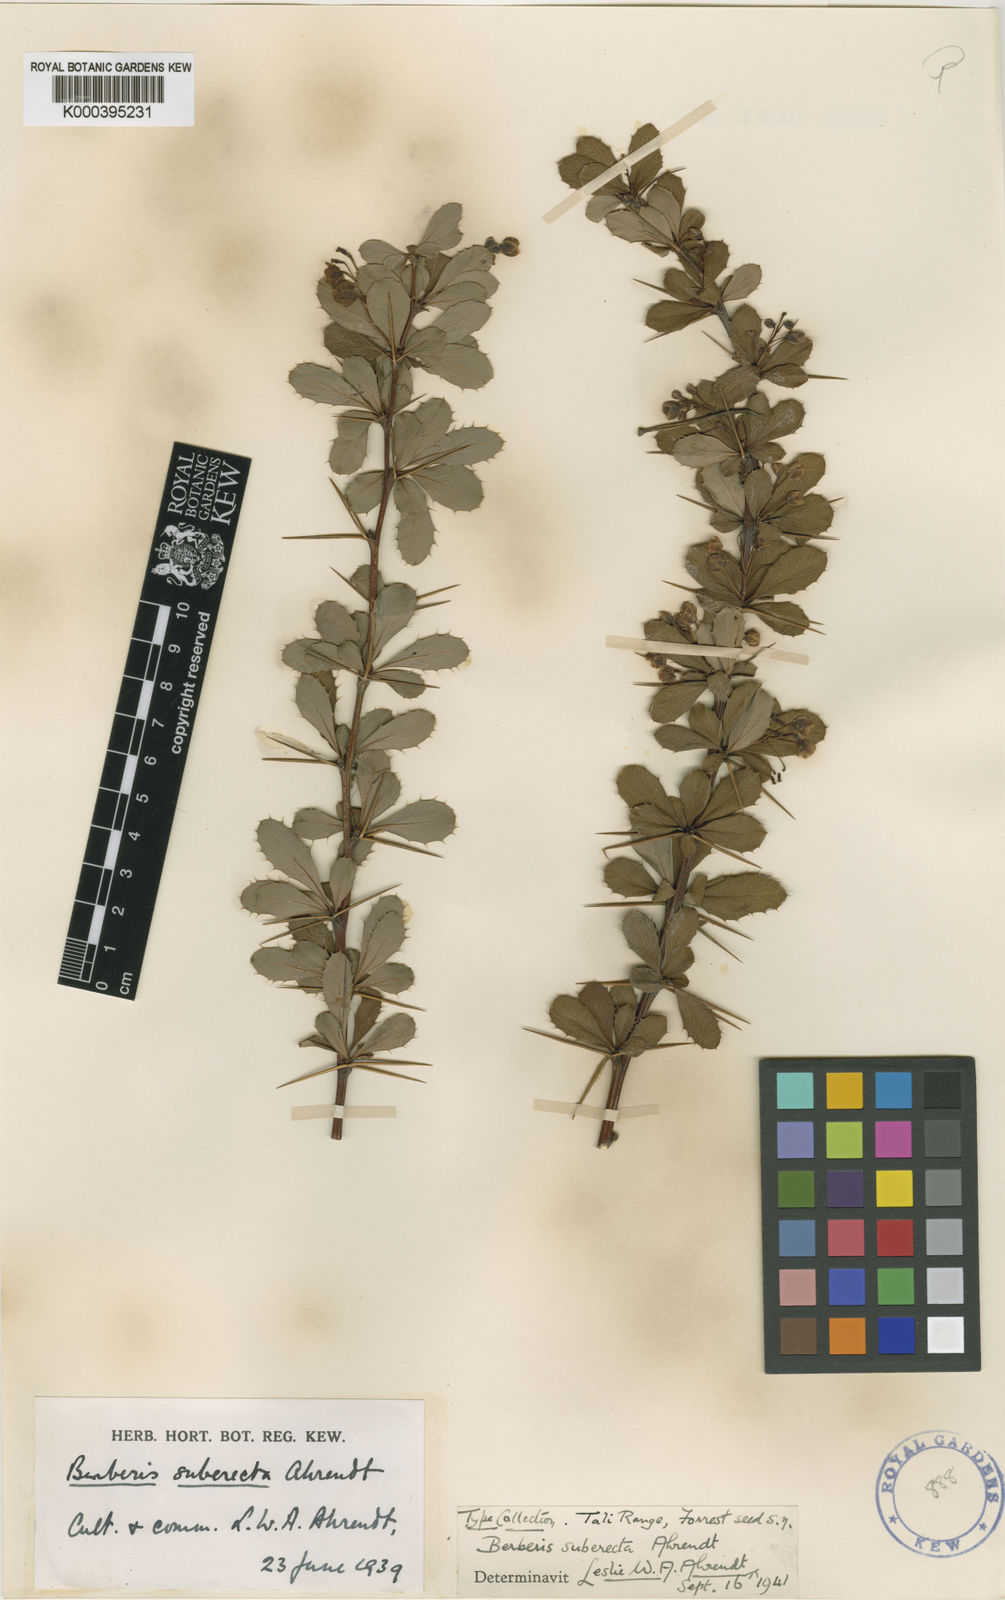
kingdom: Plantae
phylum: Tracheophyta
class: Magnoliopsida
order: Ranunculales
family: Berberidaceae
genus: Berberis
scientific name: Berberis suberecta
